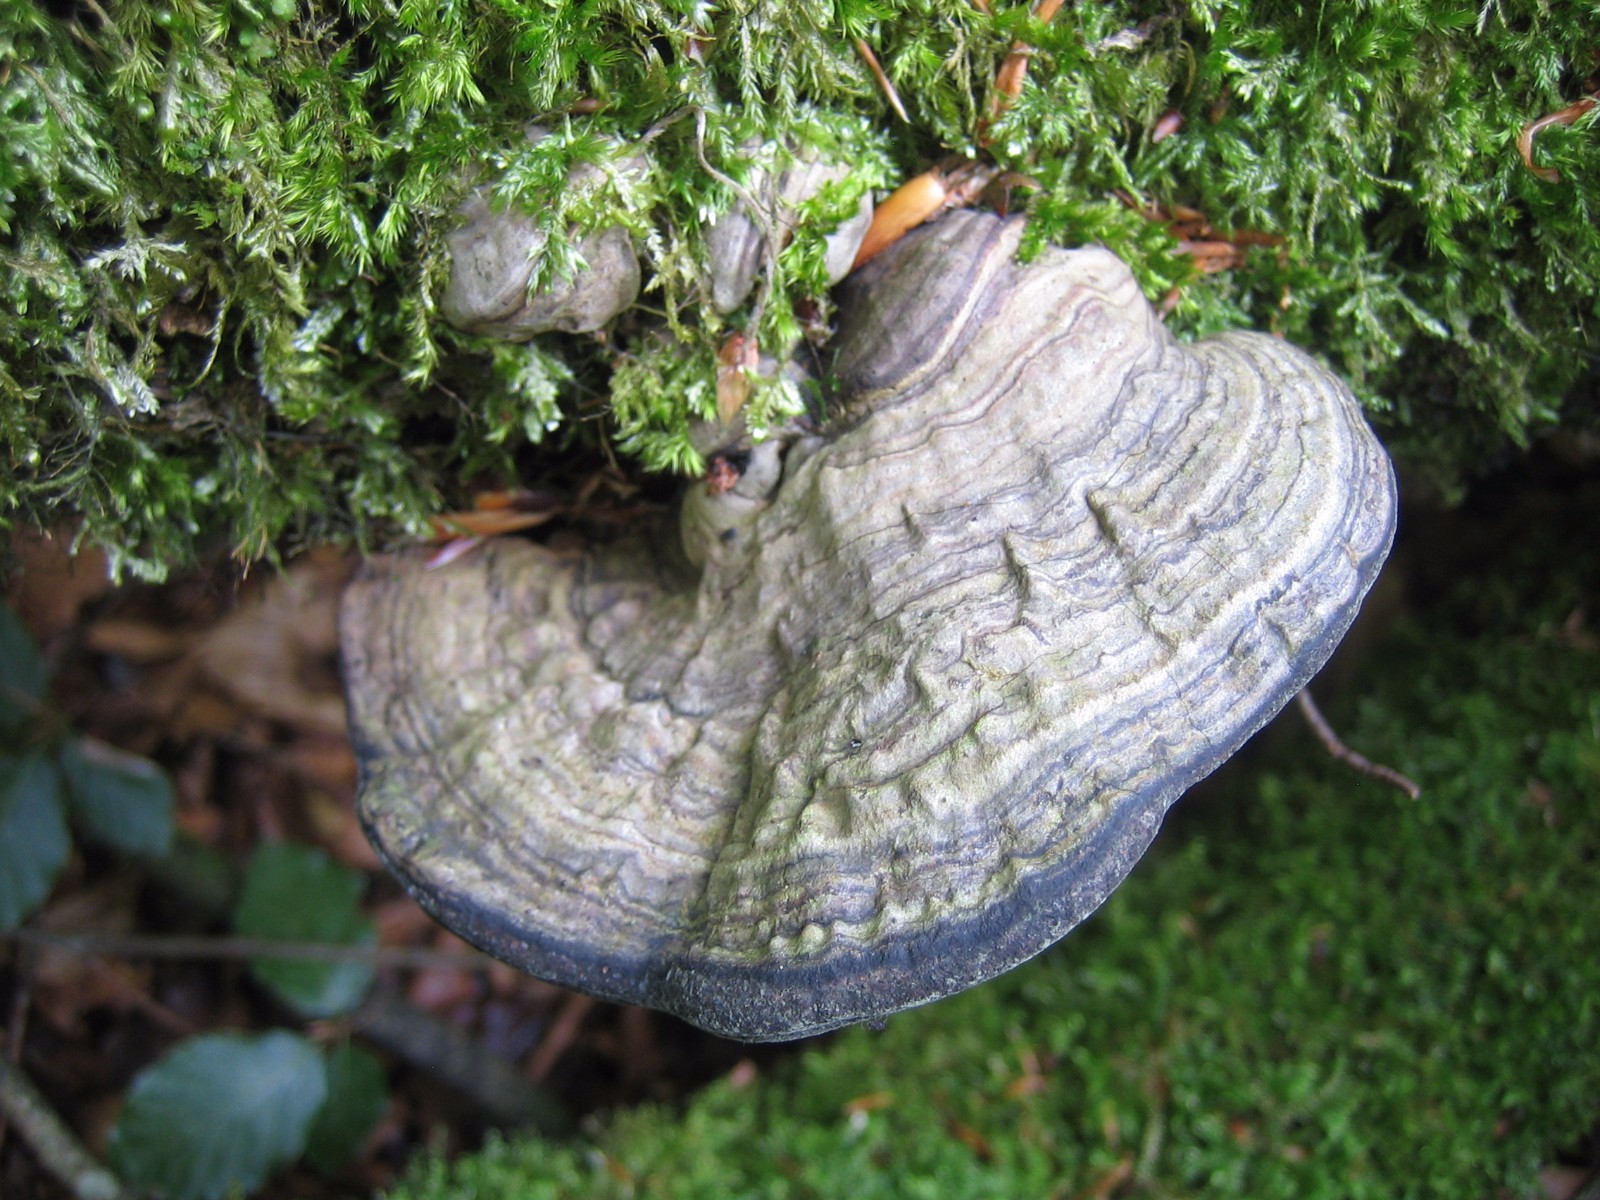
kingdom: Fungi
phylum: Basidiomycota
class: Agaricomycetes
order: Polyporales
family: Polyporaceae
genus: Ganoderma
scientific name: Ganoderma applanatum
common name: flad lakporesvamp
